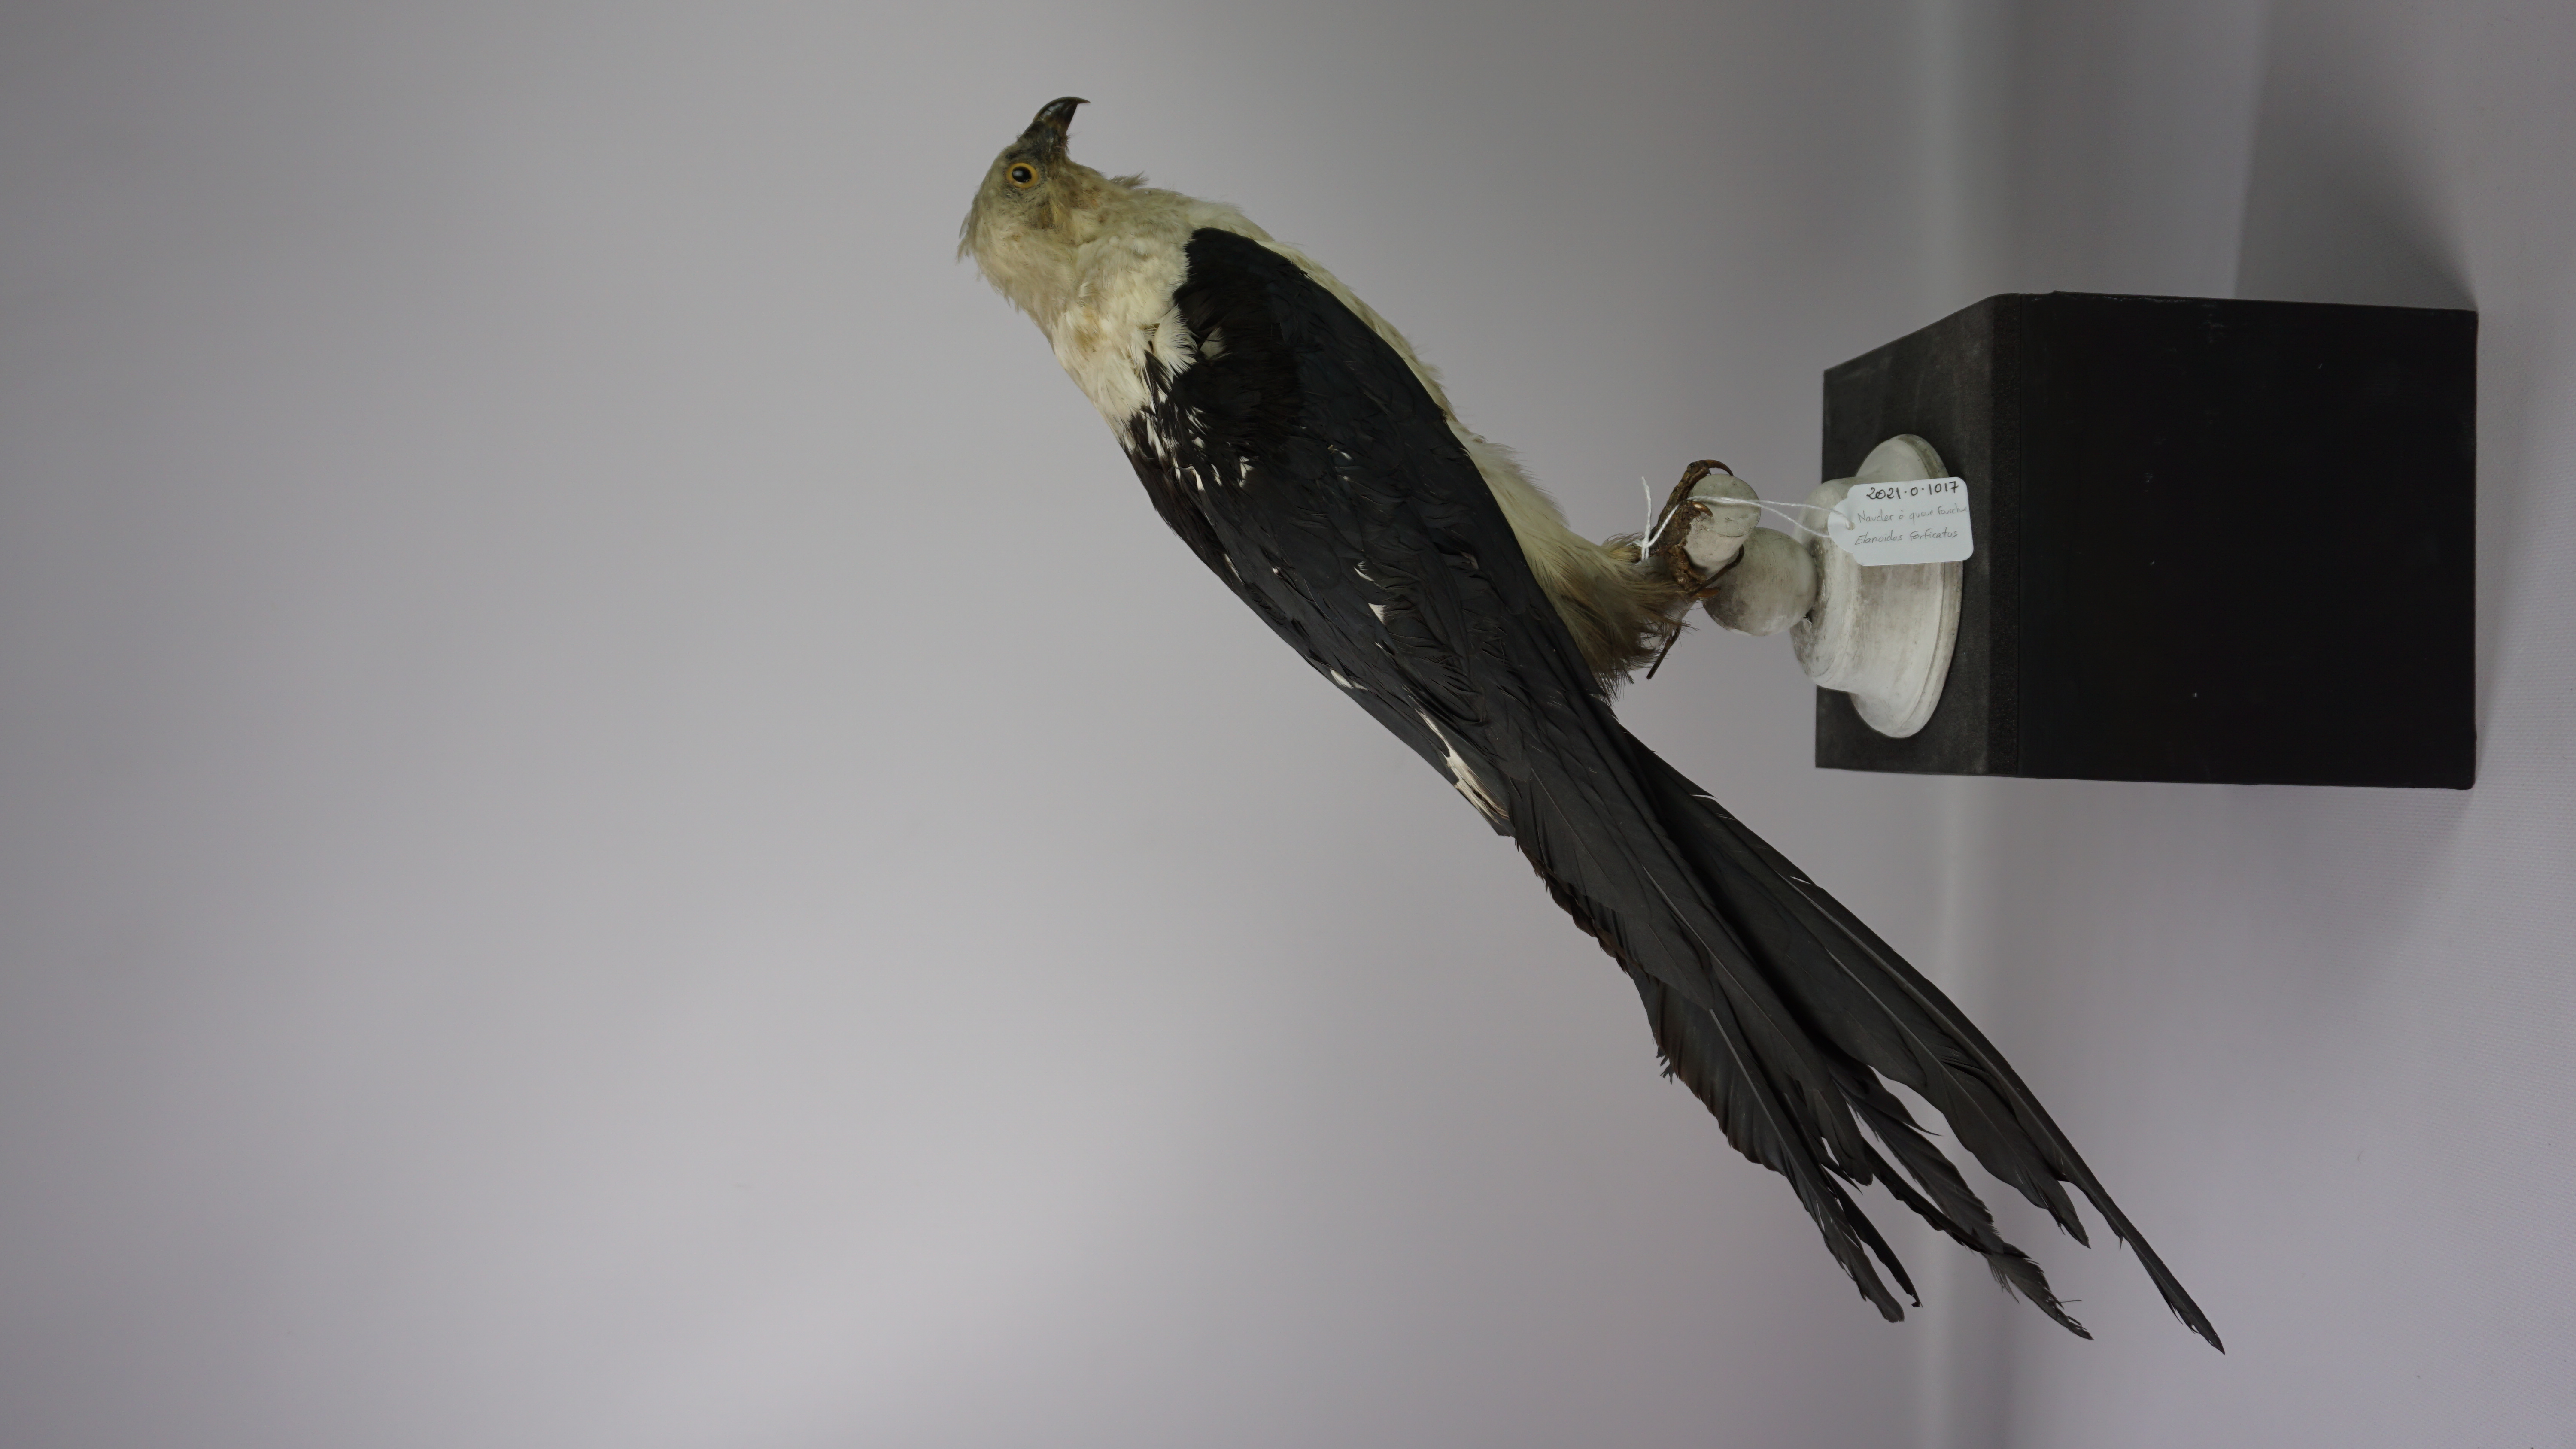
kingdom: Animalia
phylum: Chordata
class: Aves
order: Accipitriformes
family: Accipitridae
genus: Elanoides
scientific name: Elanoides forficatus
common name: Swallow-tailed kite
